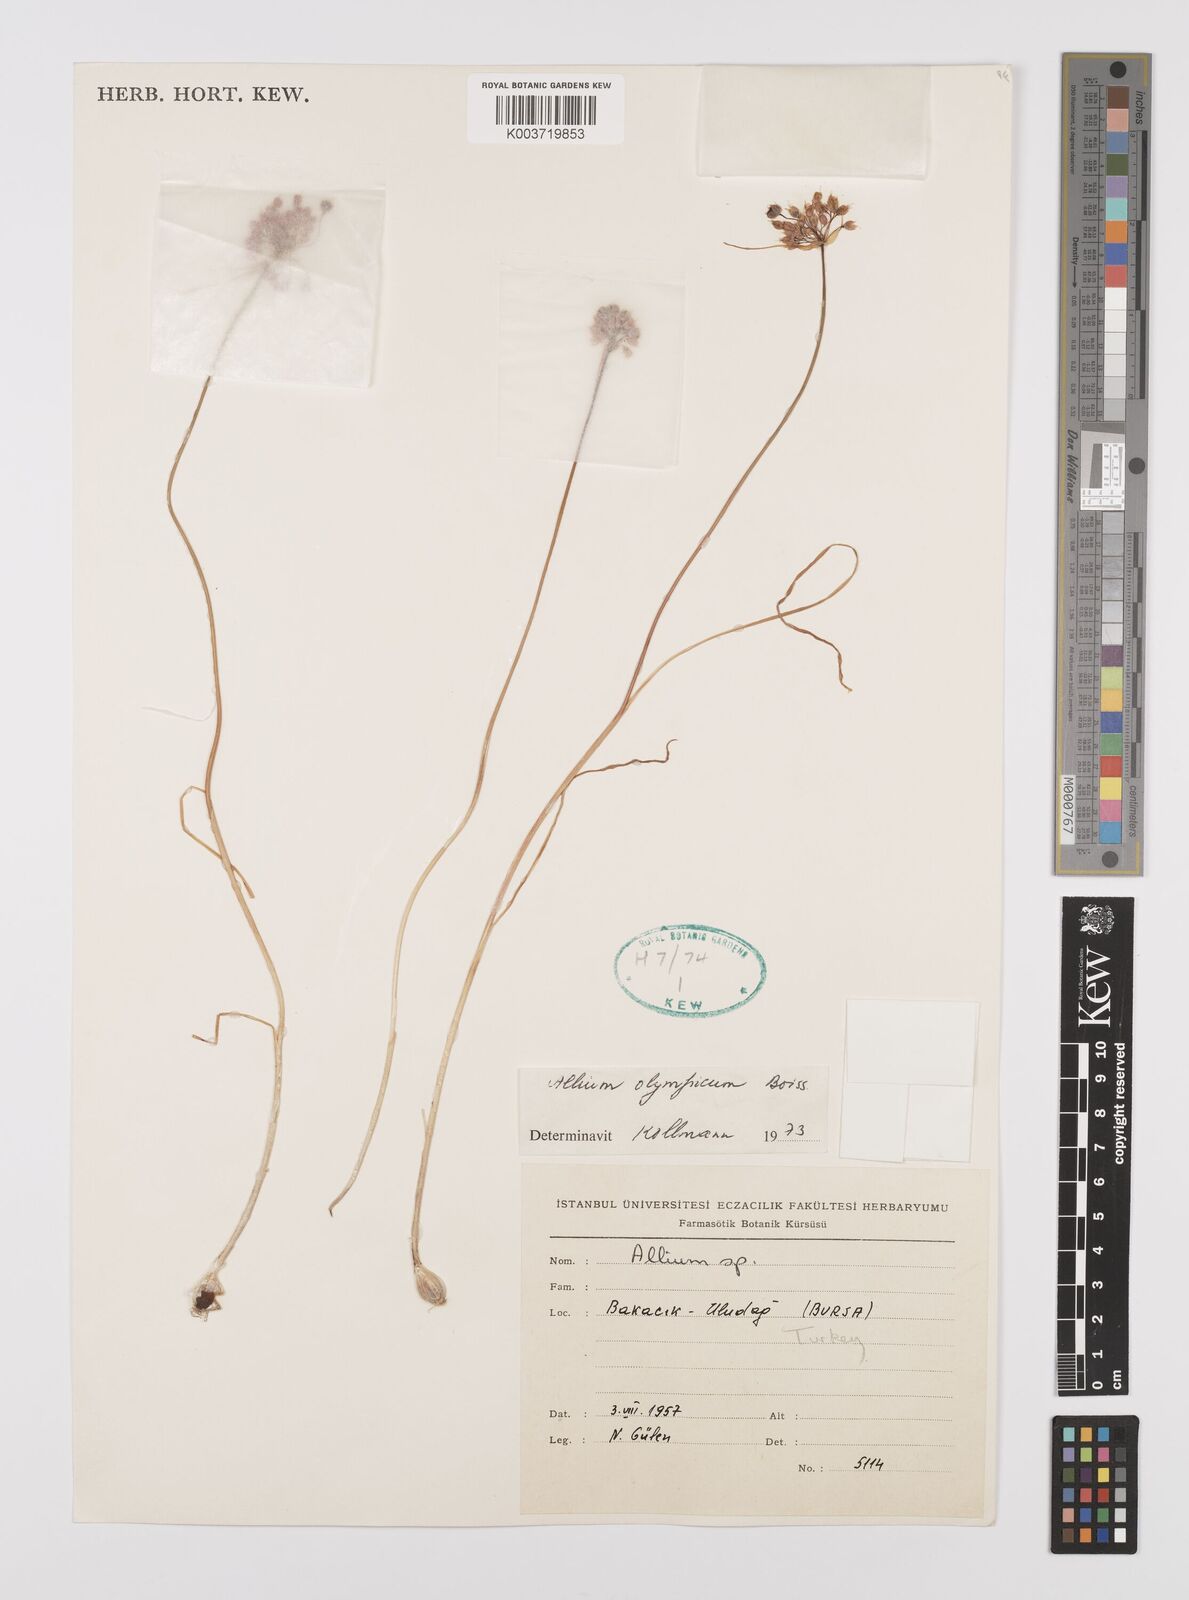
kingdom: Plantae
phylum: Tracheophyta
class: Liliopsida
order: Asparagales
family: Amaryllidaceae
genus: Allium
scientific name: Allium olympicum
